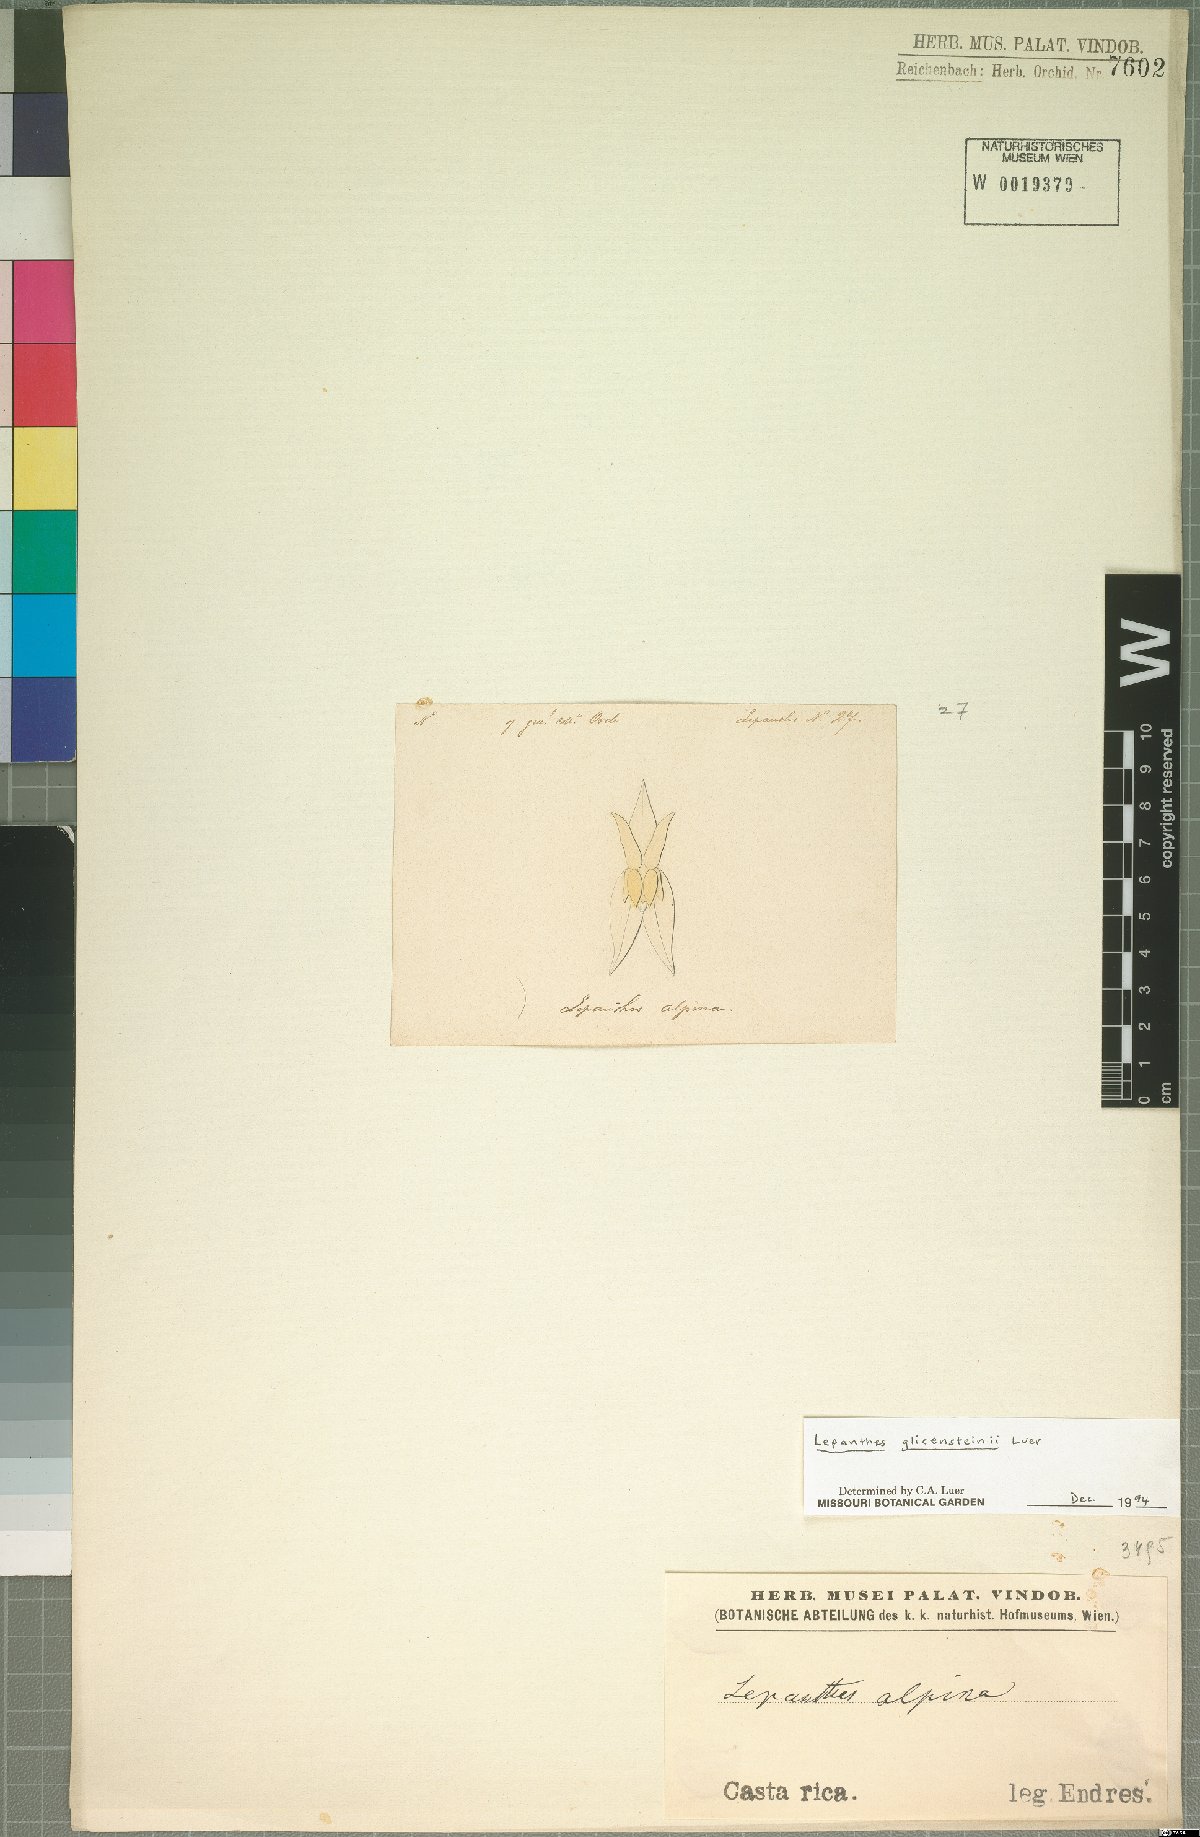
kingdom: Plantae
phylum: Tracheophyta
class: Liliopsida
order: Asparagales
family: Orchidaceae
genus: Lepanthes
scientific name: Lepanthes glicensteinii
